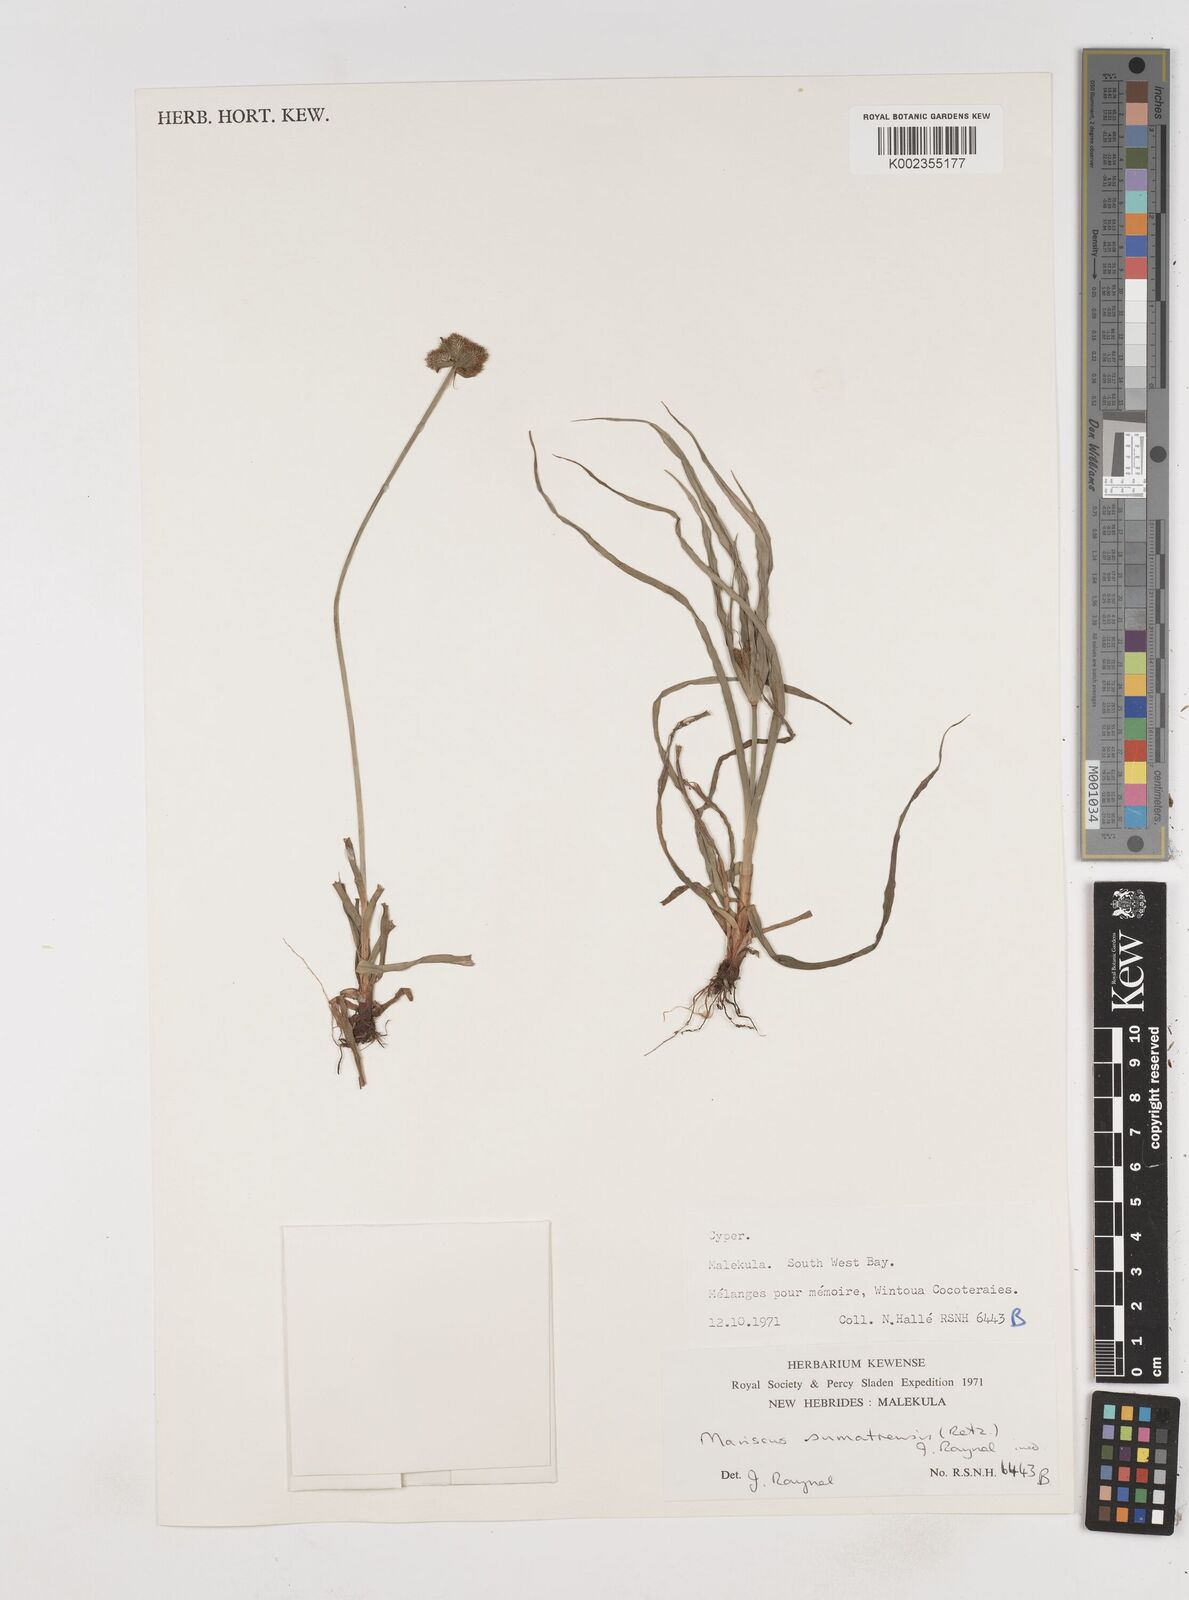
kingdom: Plantae
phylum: Tracheophyta
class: Liliopsida
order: Poales
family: Cyperaceae
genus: Cyperus
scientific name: Cyperus cyperoides
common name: Pacific island flat sedge
